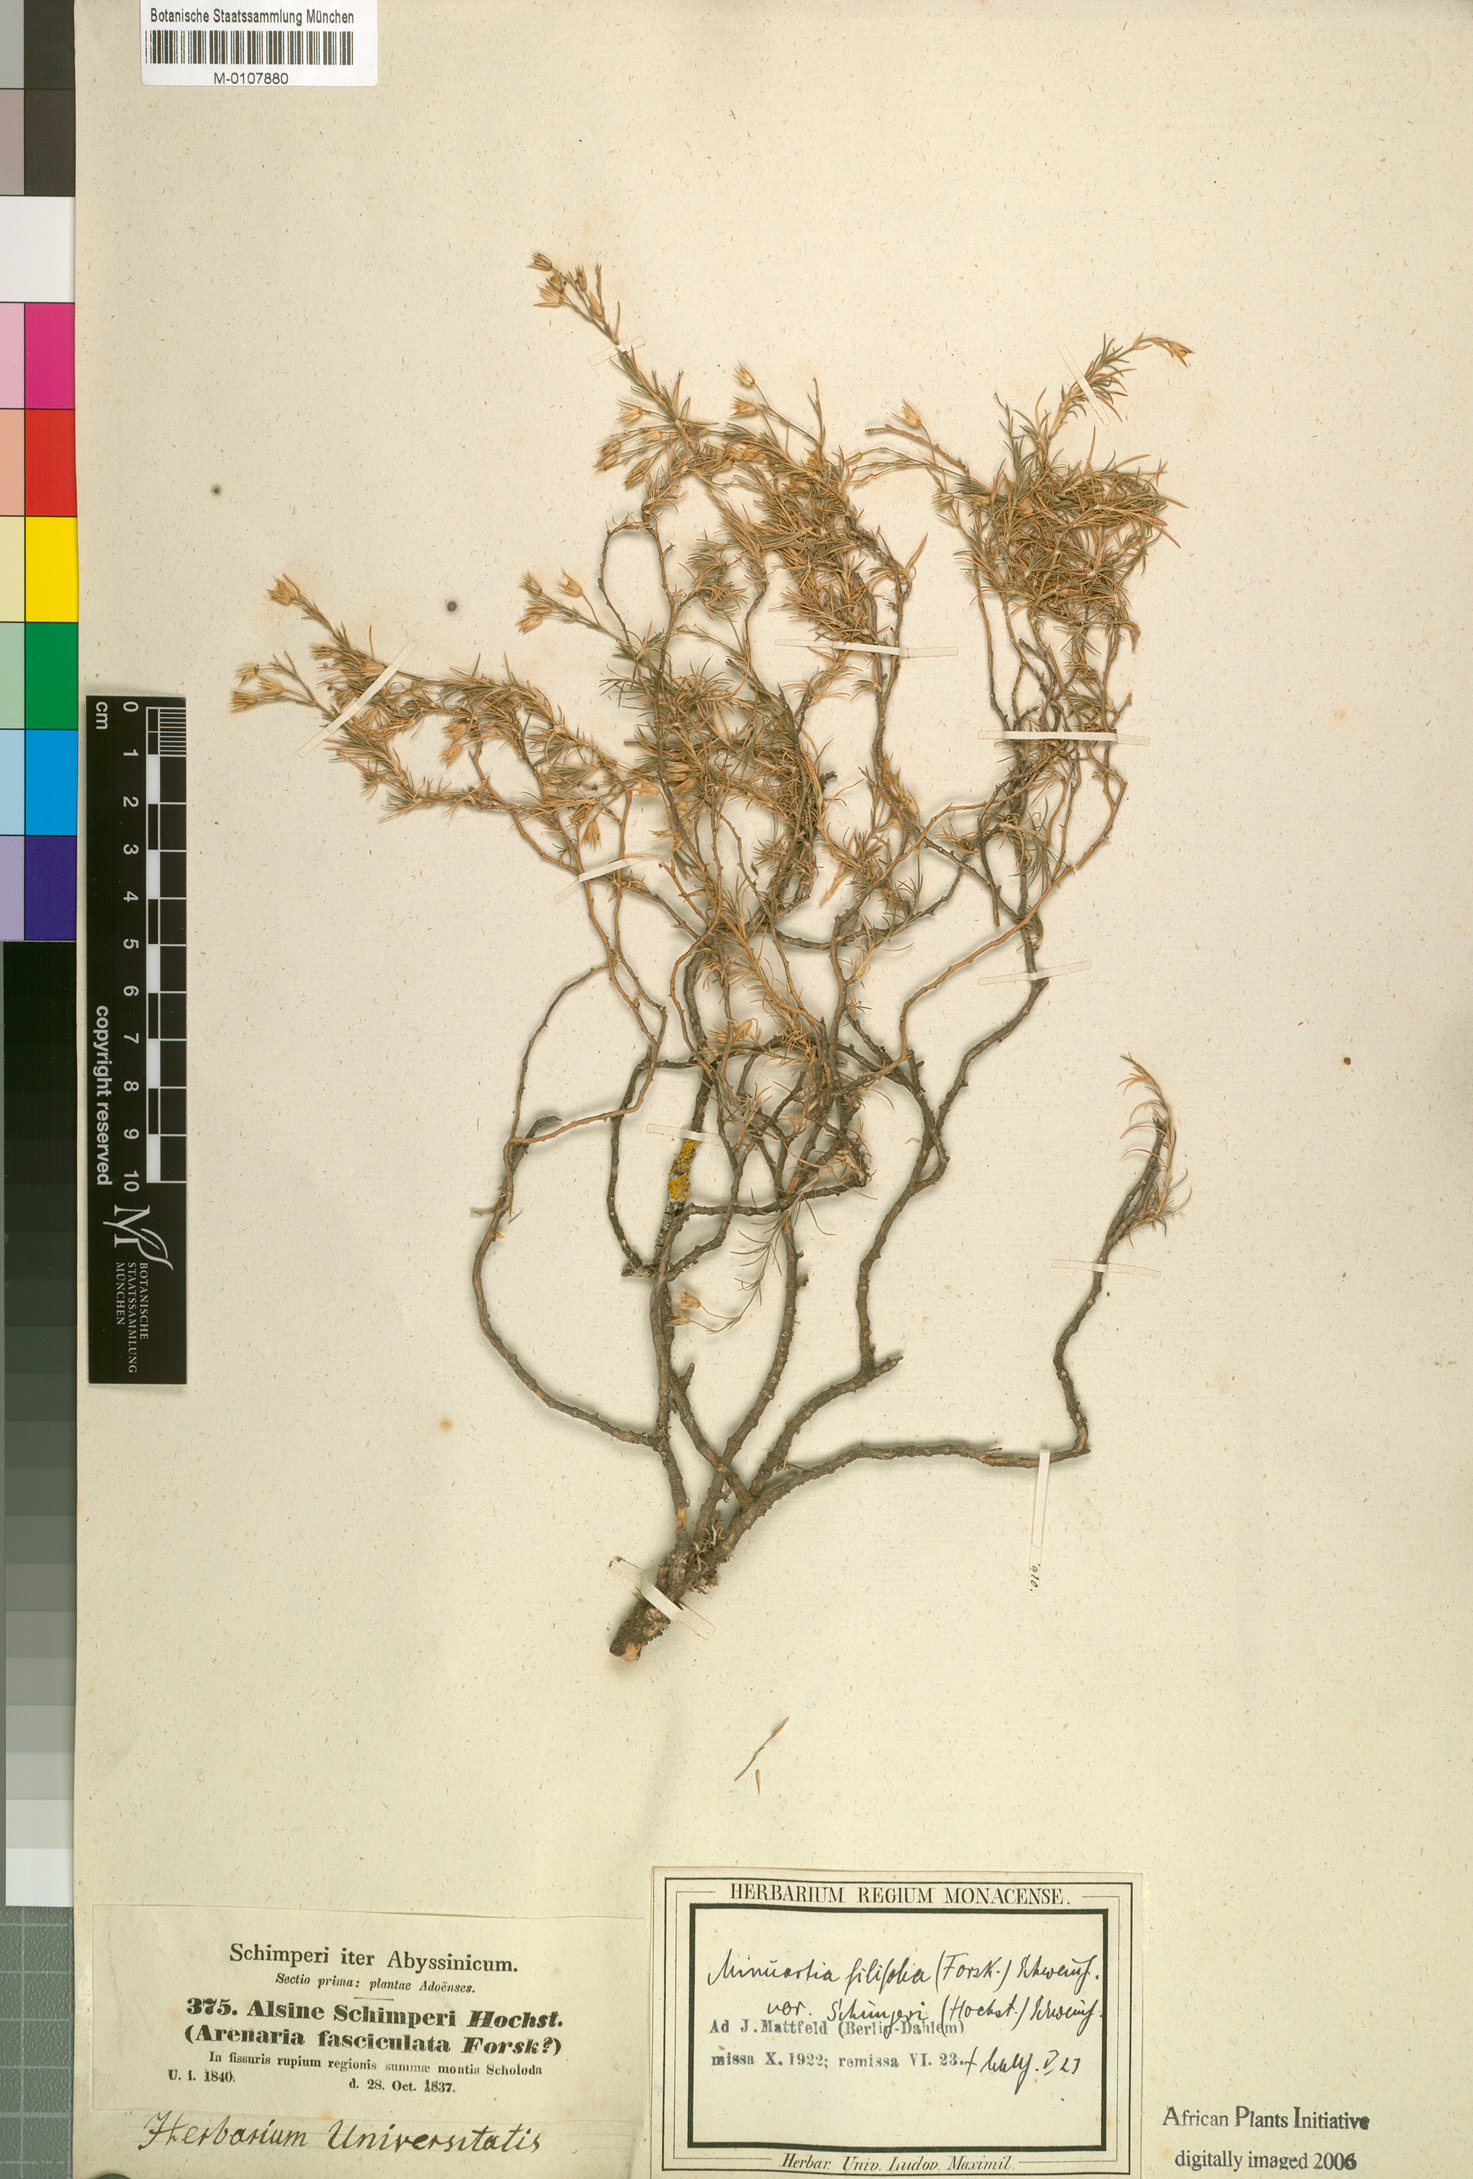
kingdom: Plantae
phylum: Tracheophyta
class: Magnoliopsida
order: Caryophyllales
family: Caryophyllaceae
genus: Minuartia
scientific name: Minuartia filifolia
